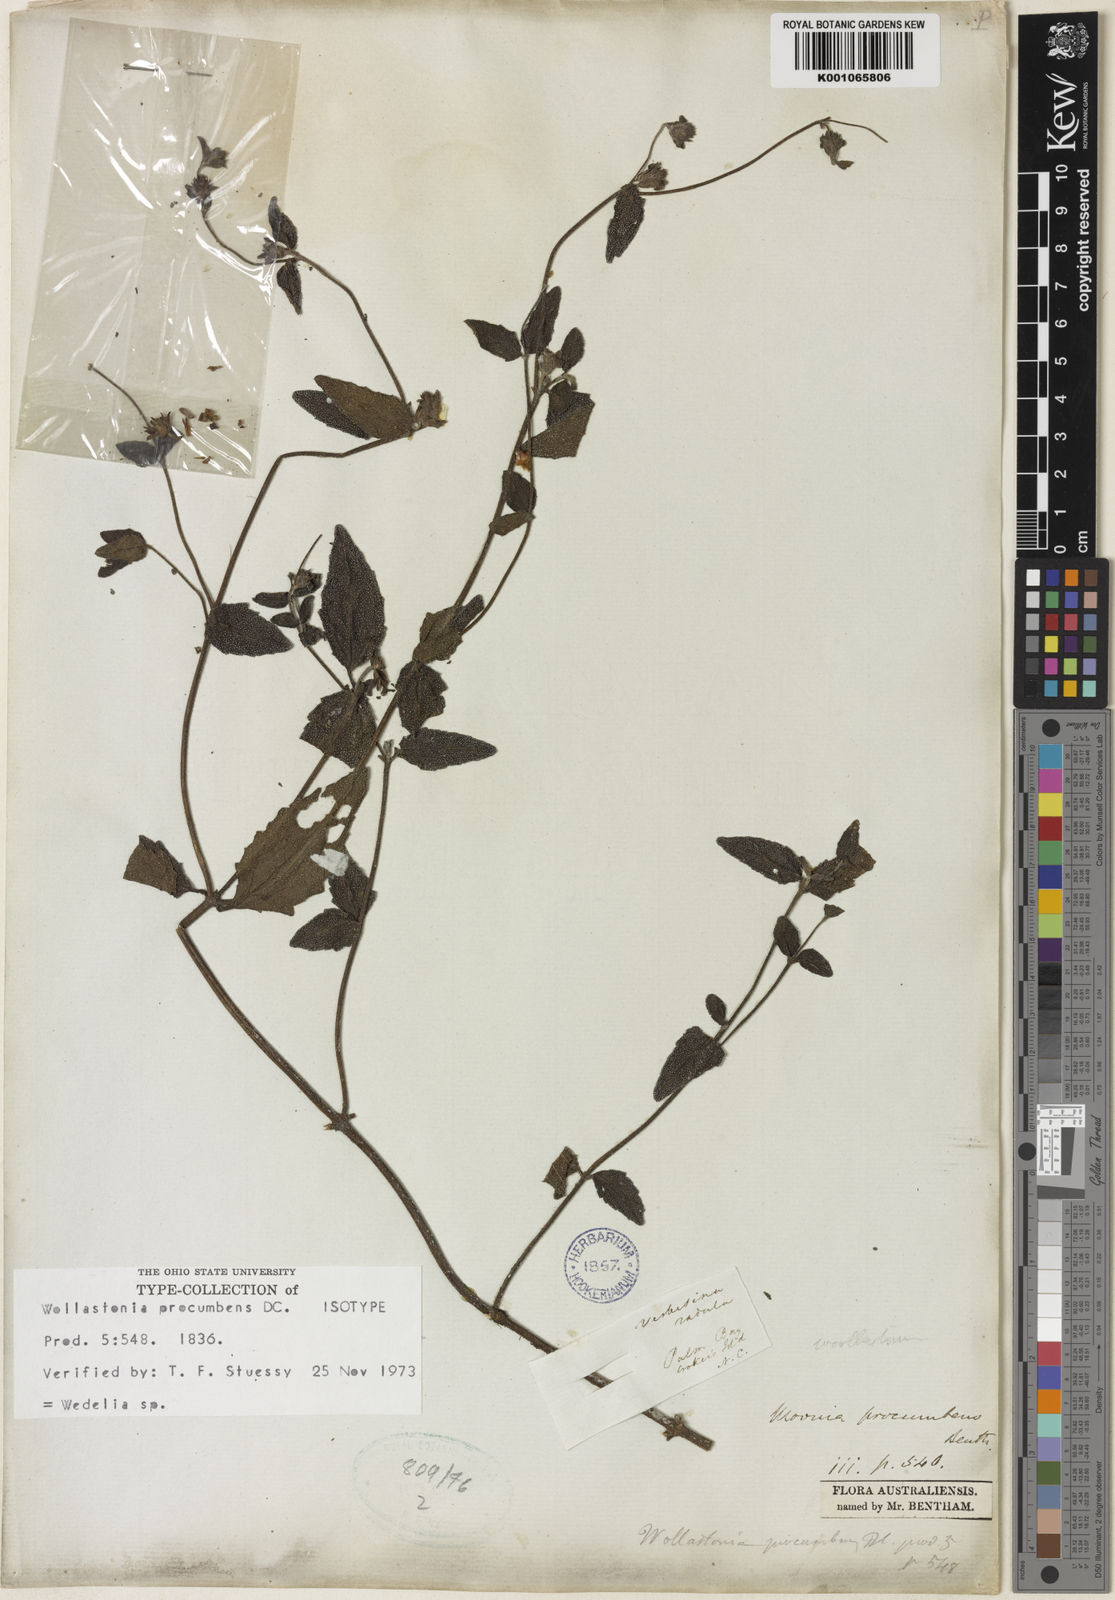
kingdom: Plantae
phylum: Tracheophyta
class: Magnoliopsida
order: Asterales
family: Asteraceae
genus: Wedelia
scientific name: Wedelia
